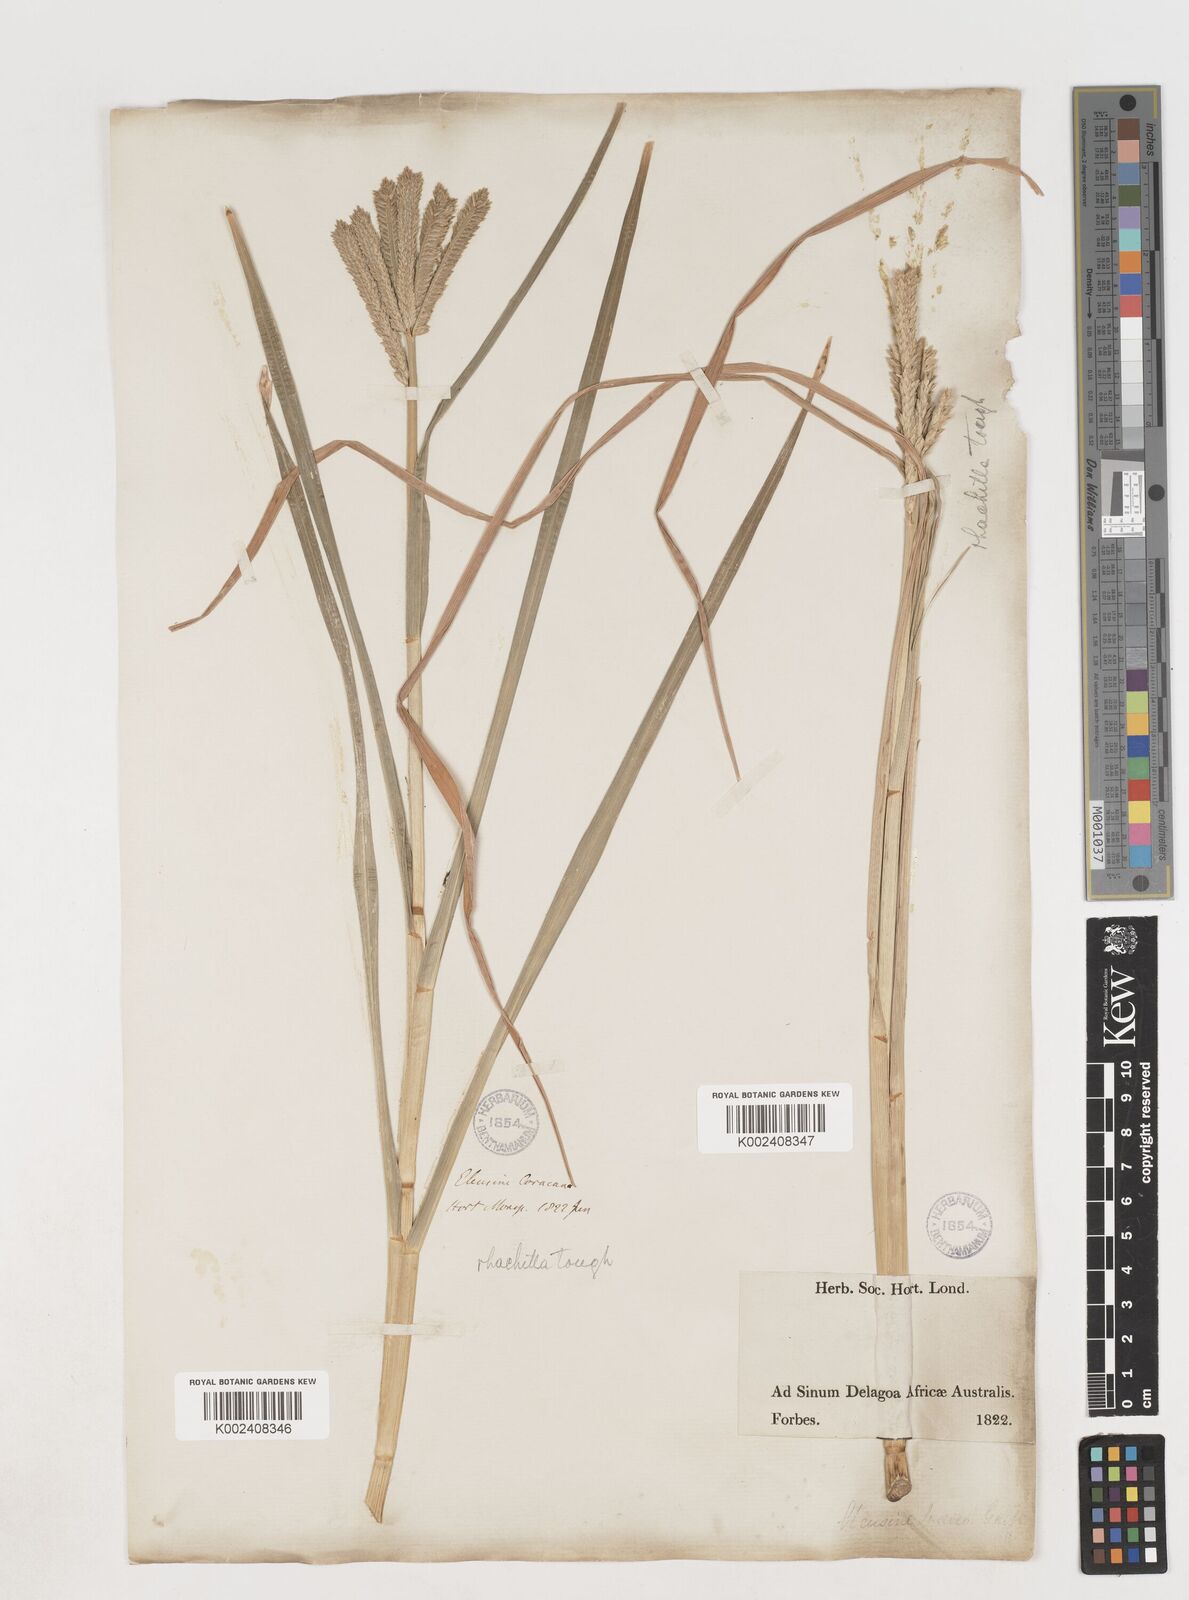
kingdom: Plantae
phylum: Tracheophyta
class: Liliopsida
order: Poales
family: Poaceae
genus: Eleusine
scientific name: Eleusine coracana
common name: Finger millet
